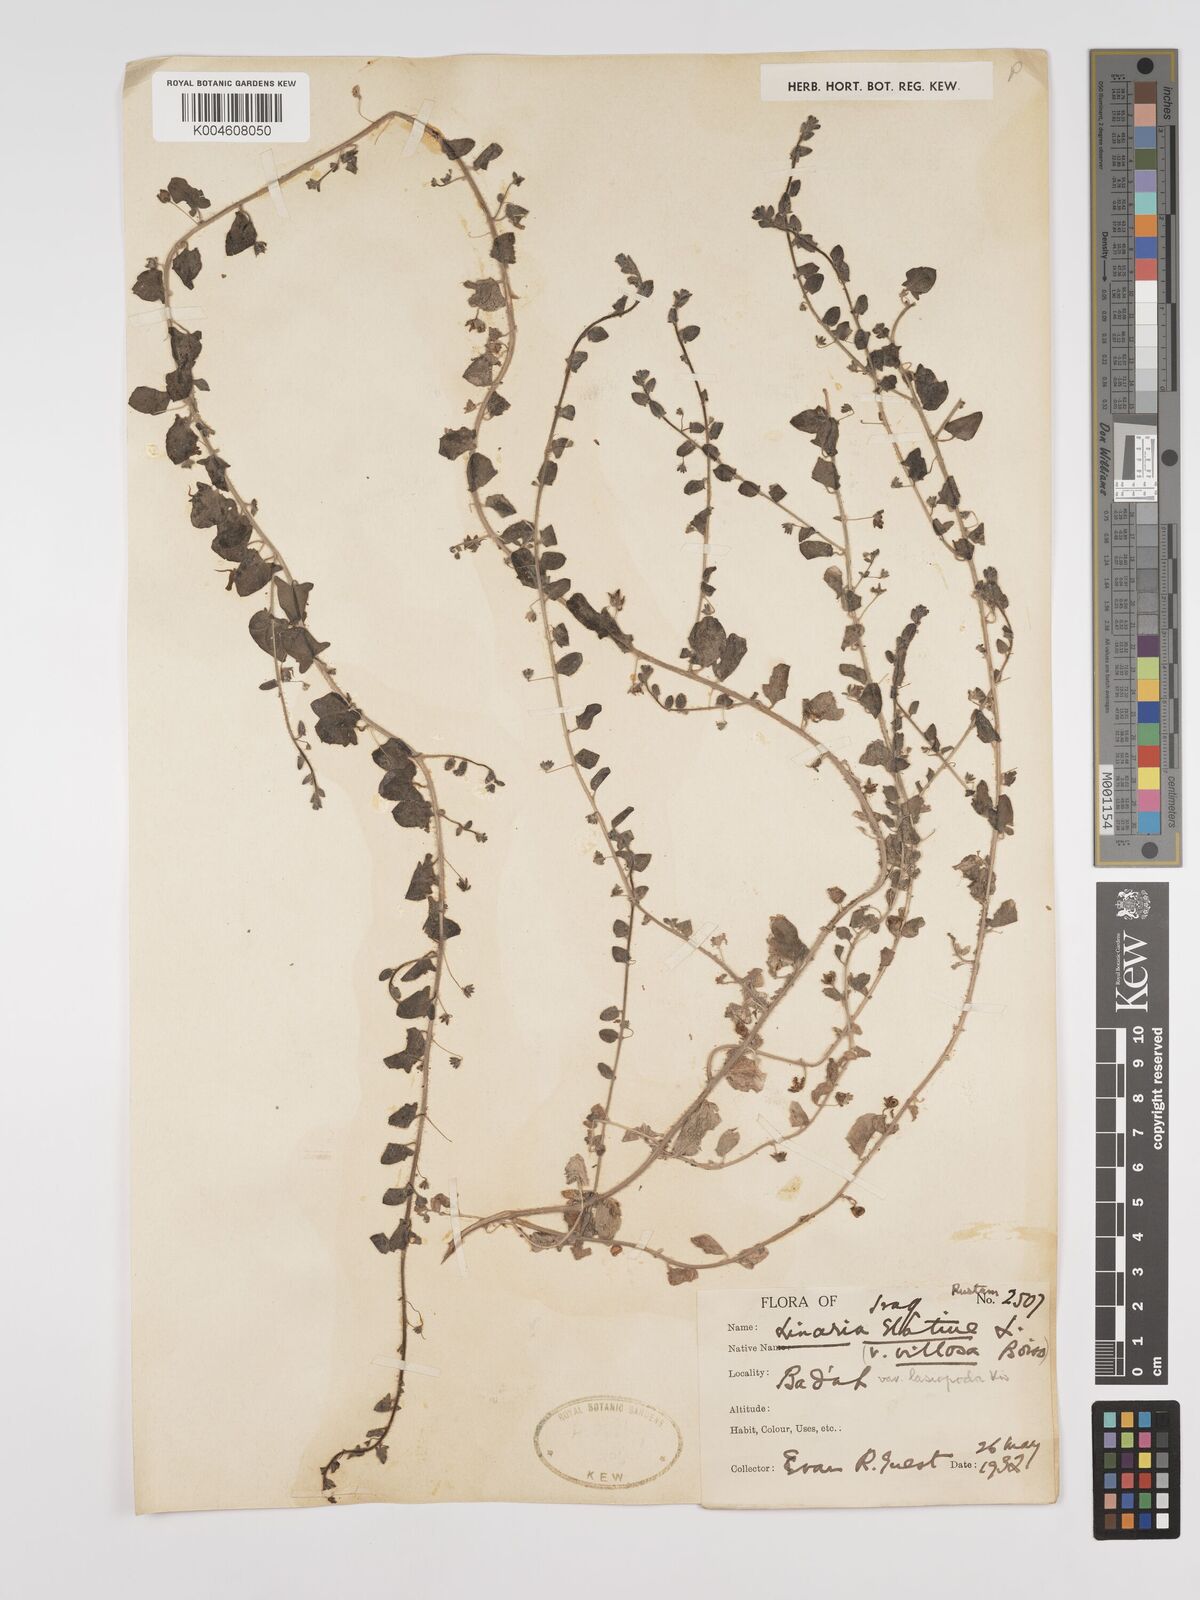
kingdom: Plantae
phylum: Tracheophyta
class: Magnoliopsida
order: Lamiales
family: Plantaginaceae
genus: Kickxia
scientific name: Kickxia elatine
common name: Sharp-leaved fluellen
